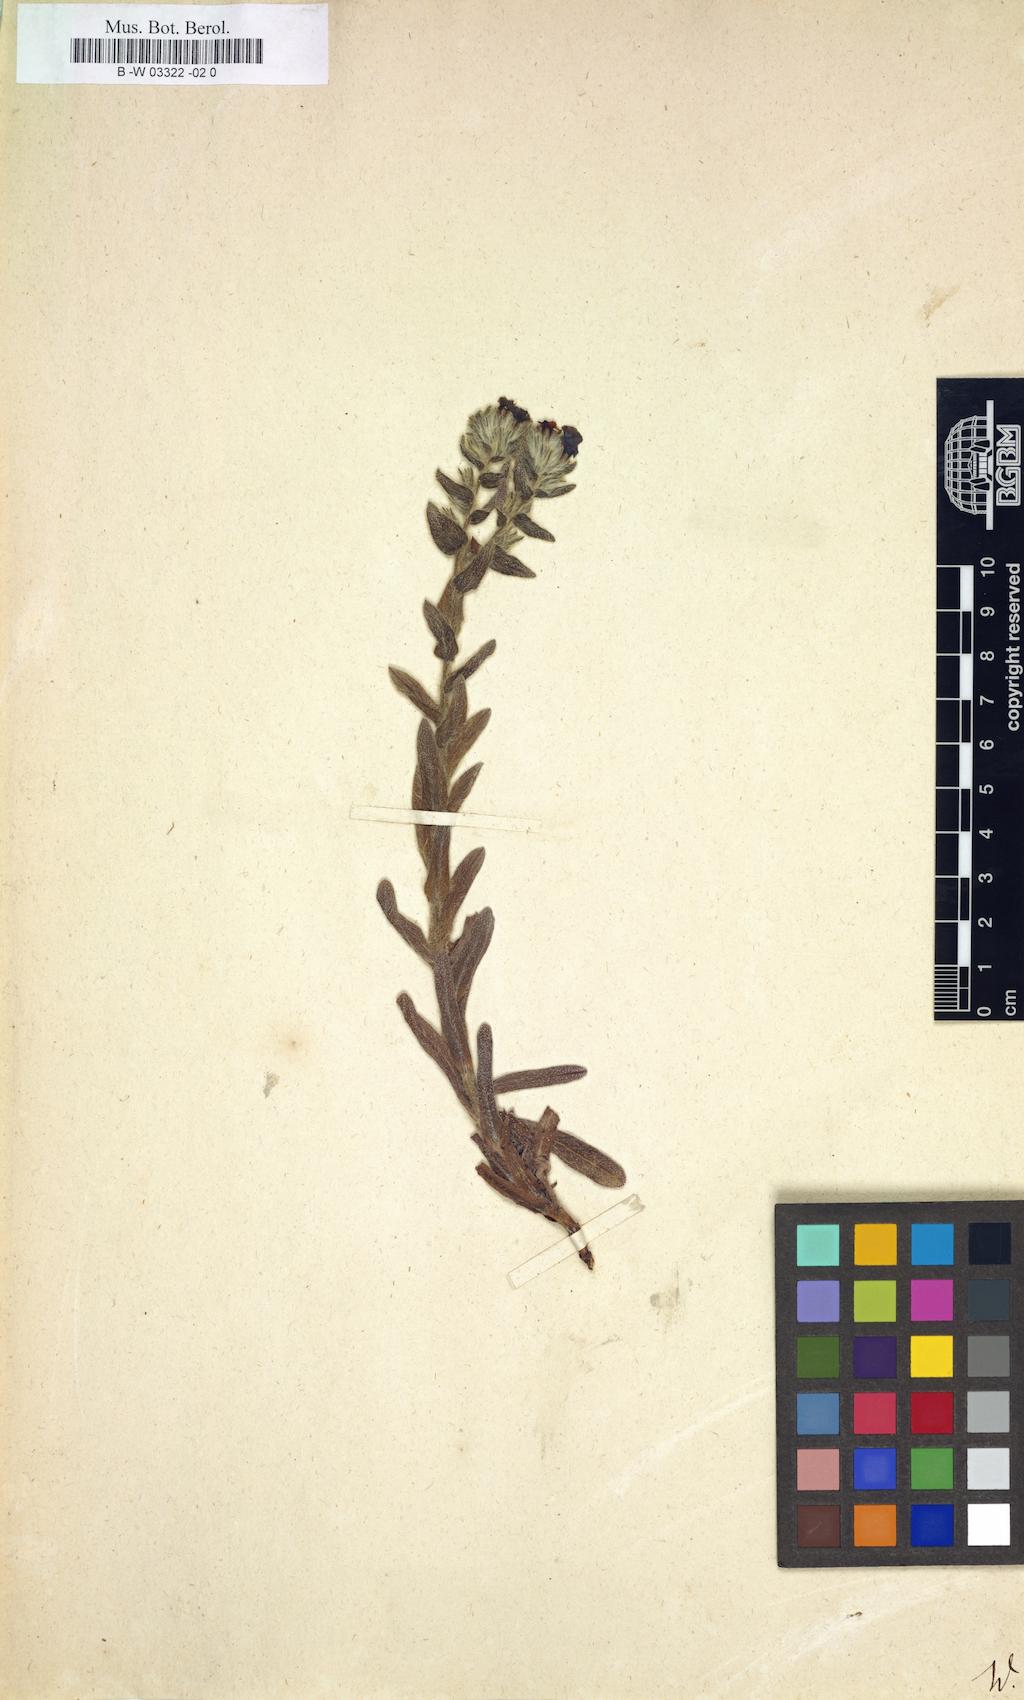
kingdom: Plantae
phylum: Tracheophyta
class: Magnoliopsida
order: Boraginales
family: Boraginaceae
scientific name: Boraginaceae
